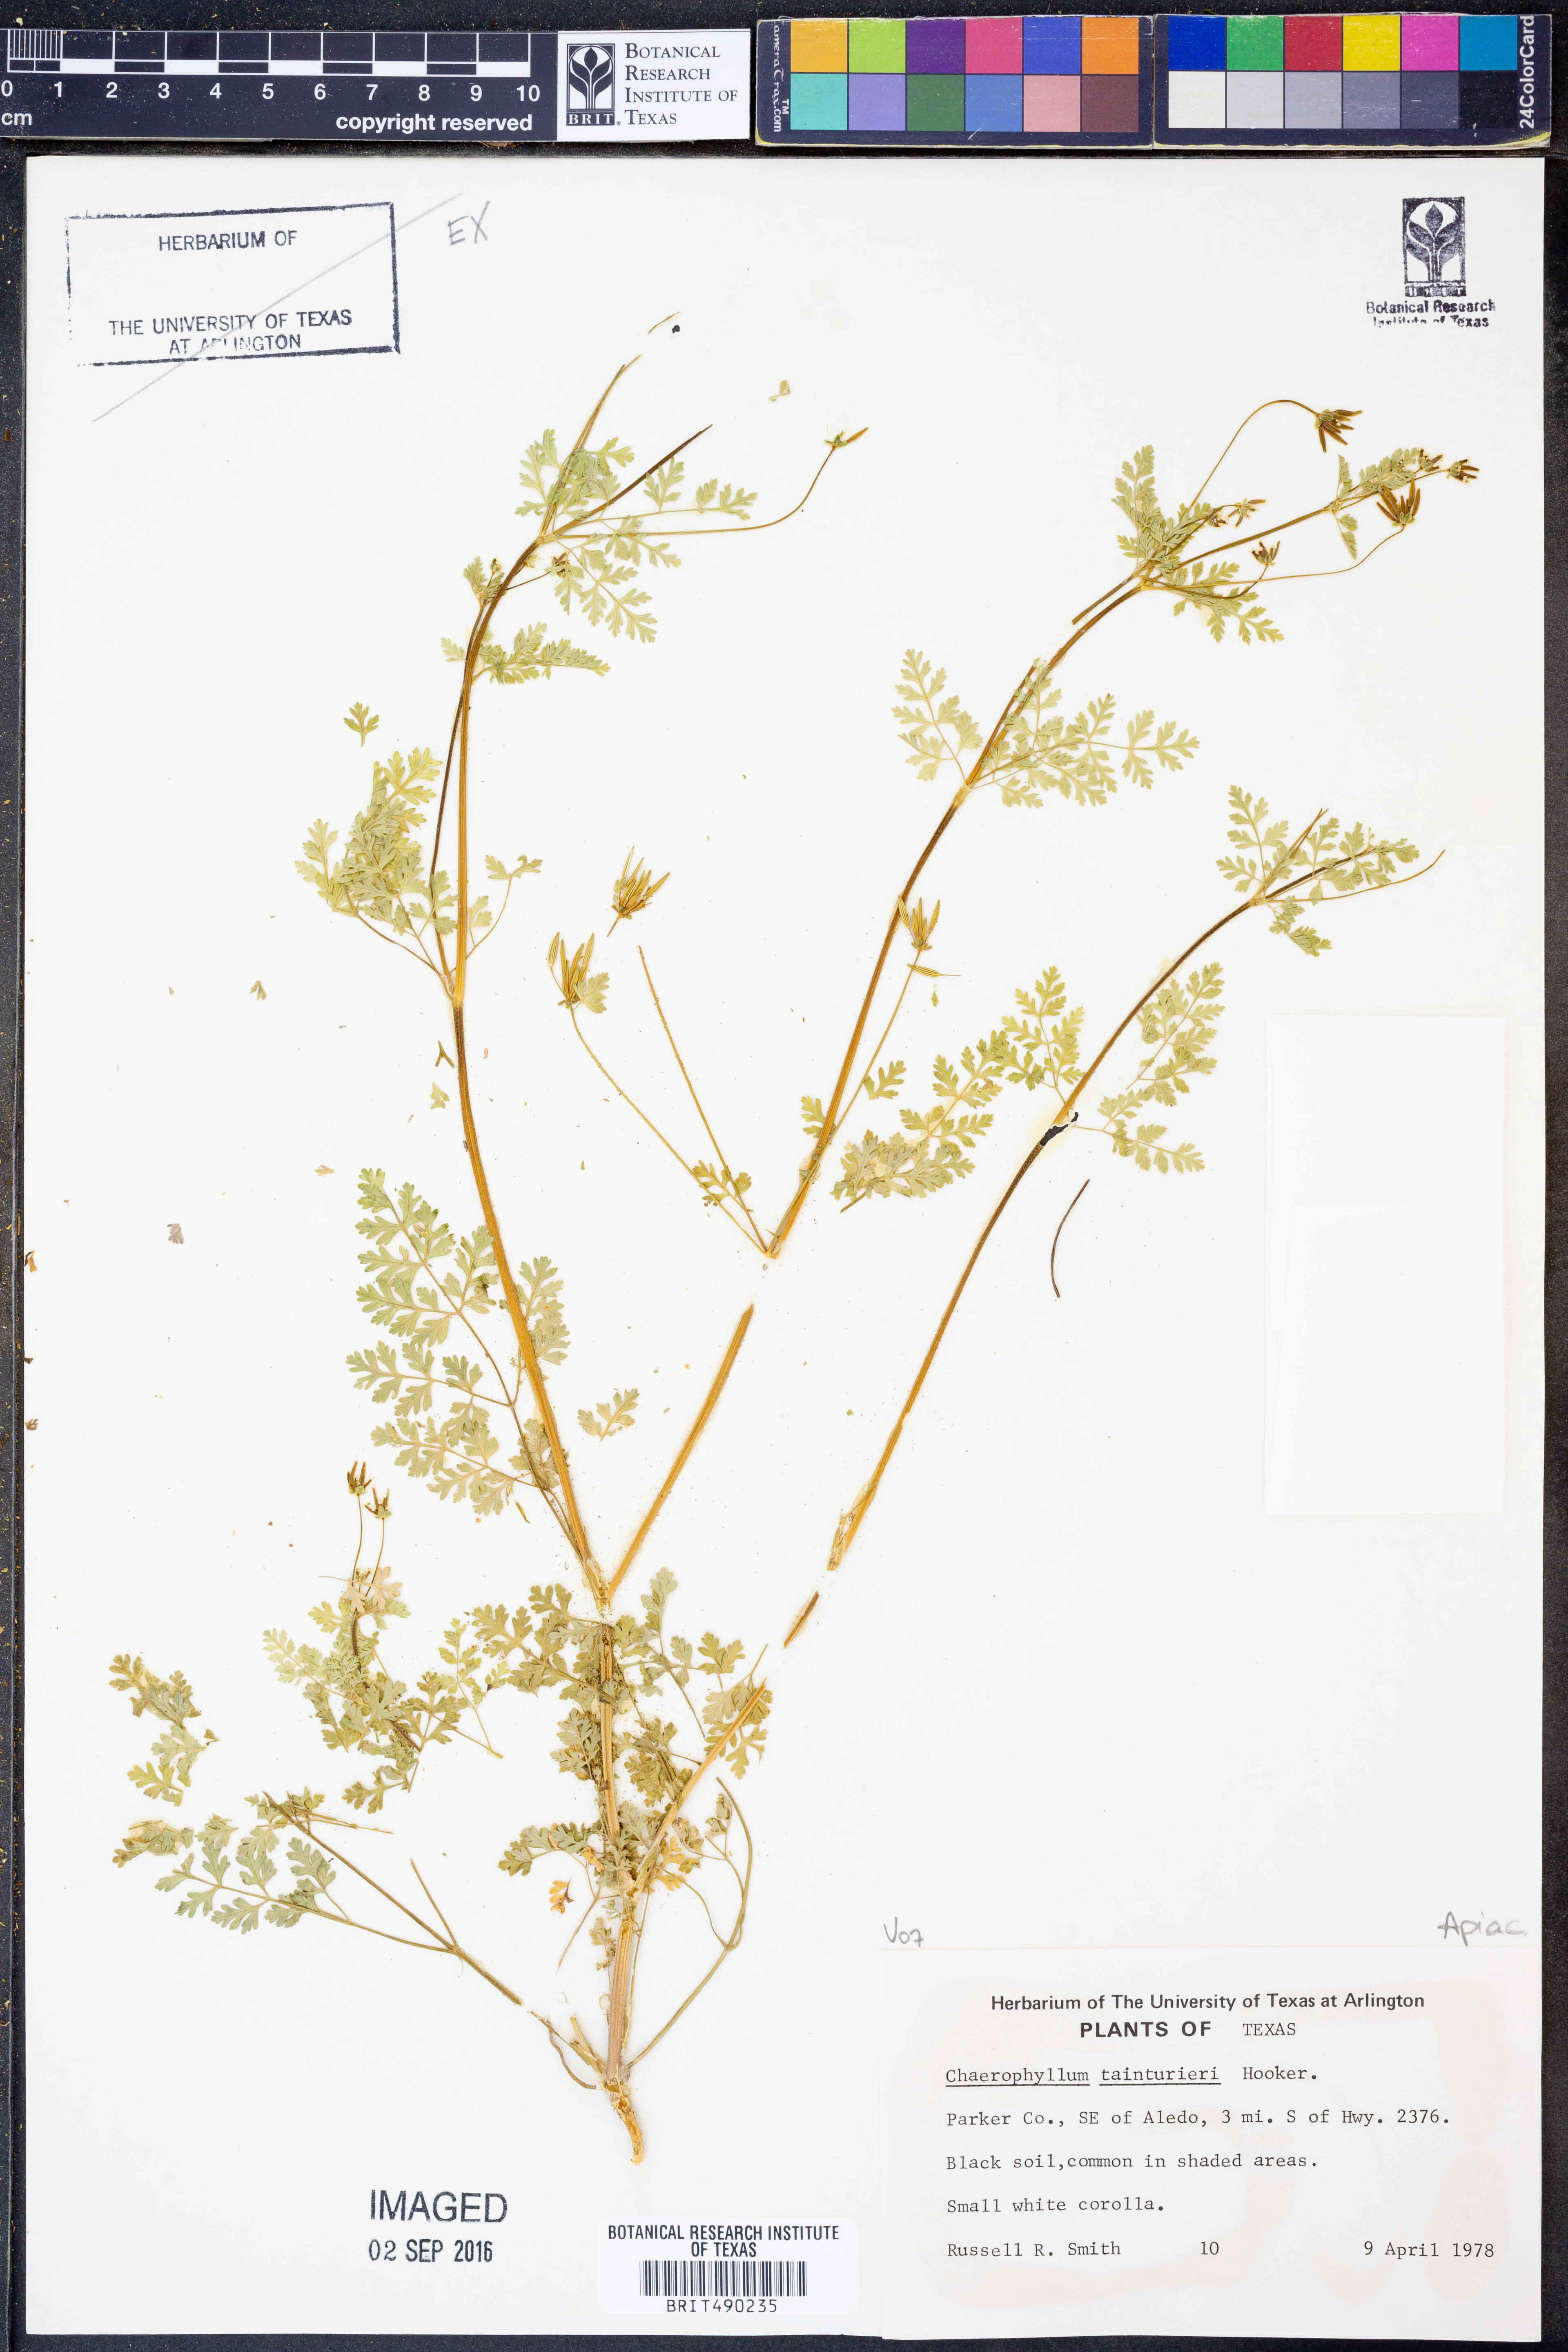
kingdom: Plantae
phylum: Tracheophyta
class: Magnoliopsida
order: Apiales
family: Apiaceae
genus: Chaerophyllum
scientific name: Chaerophyllum tainturieri
